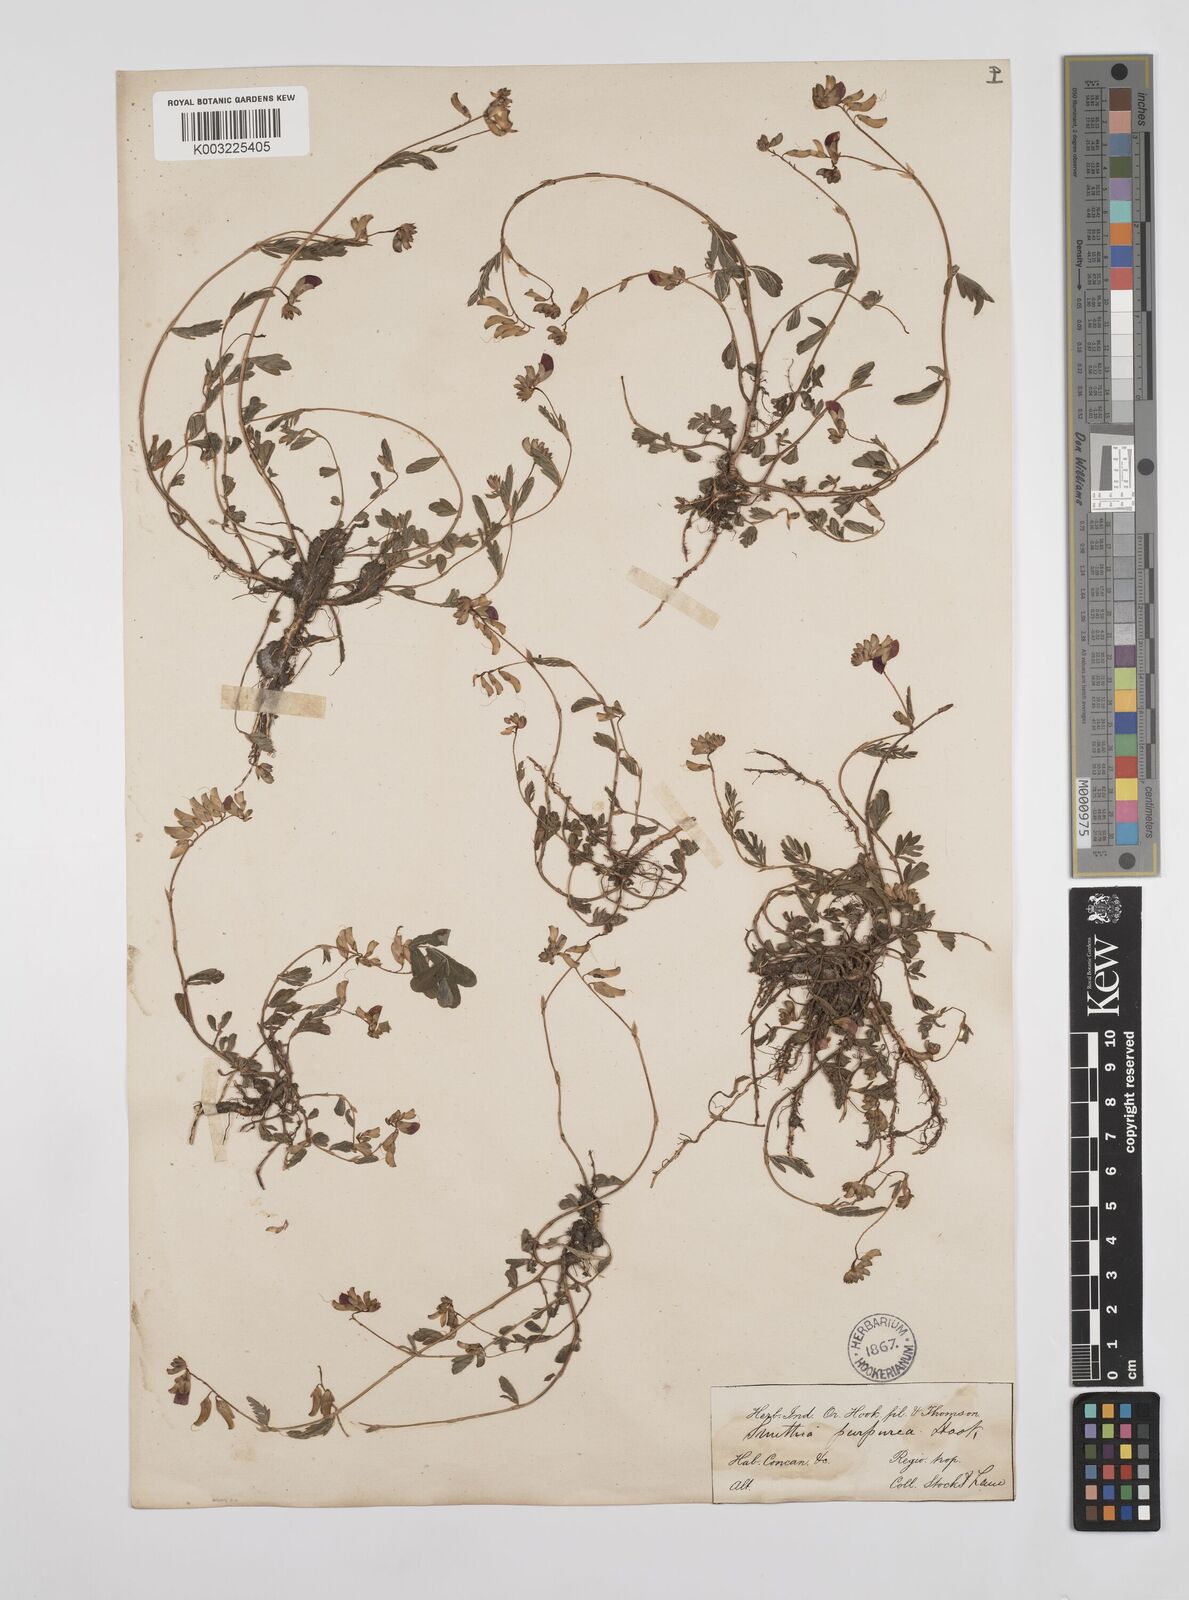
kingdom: Plantae
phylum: Tracheophyta
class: Magnoliopsida
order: Fabales
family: Fabaceae
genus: Smithia
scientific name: Smithia purpurea
